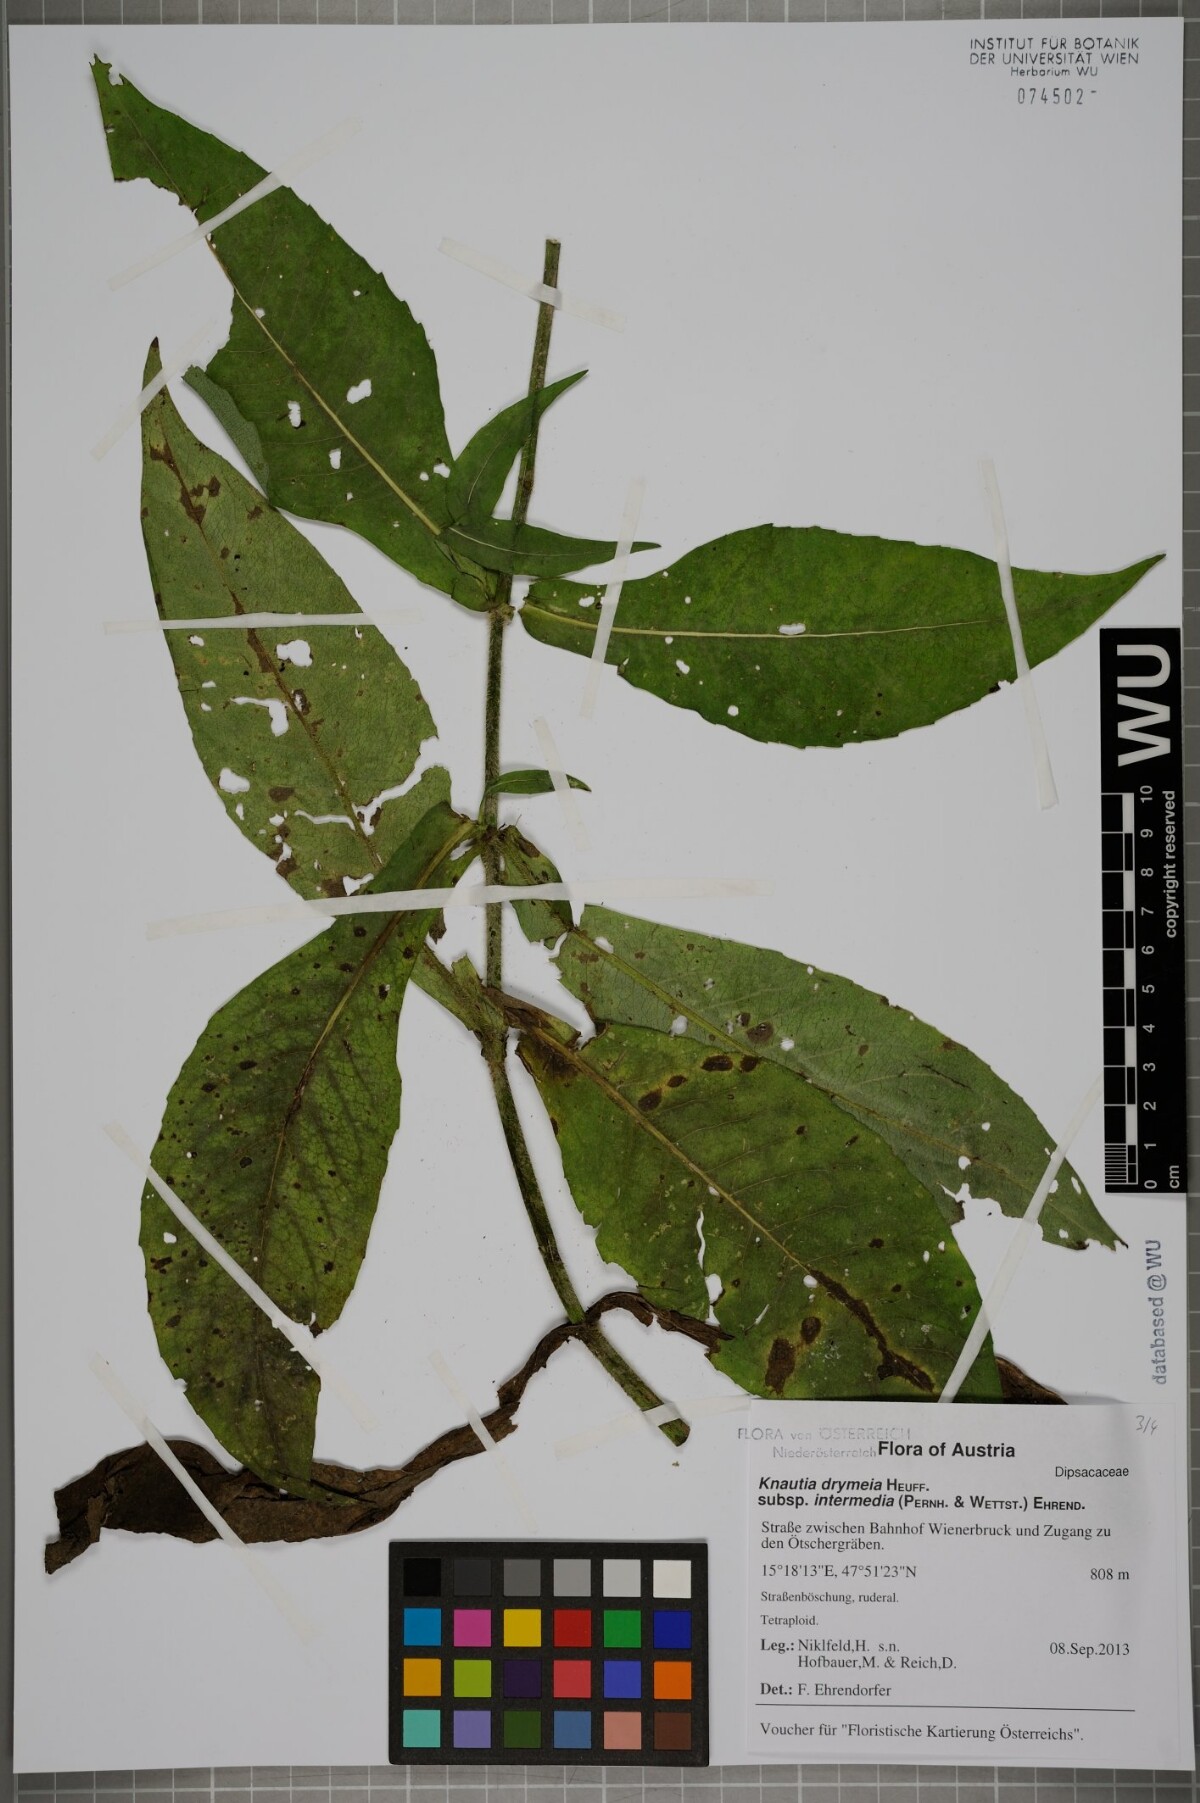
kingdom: Plantae
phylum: Tracheophyta
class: Magnoliopsida
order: Dipsacales
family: Caprifoliaceae
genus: Knautia
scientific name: Knautia drymeia
